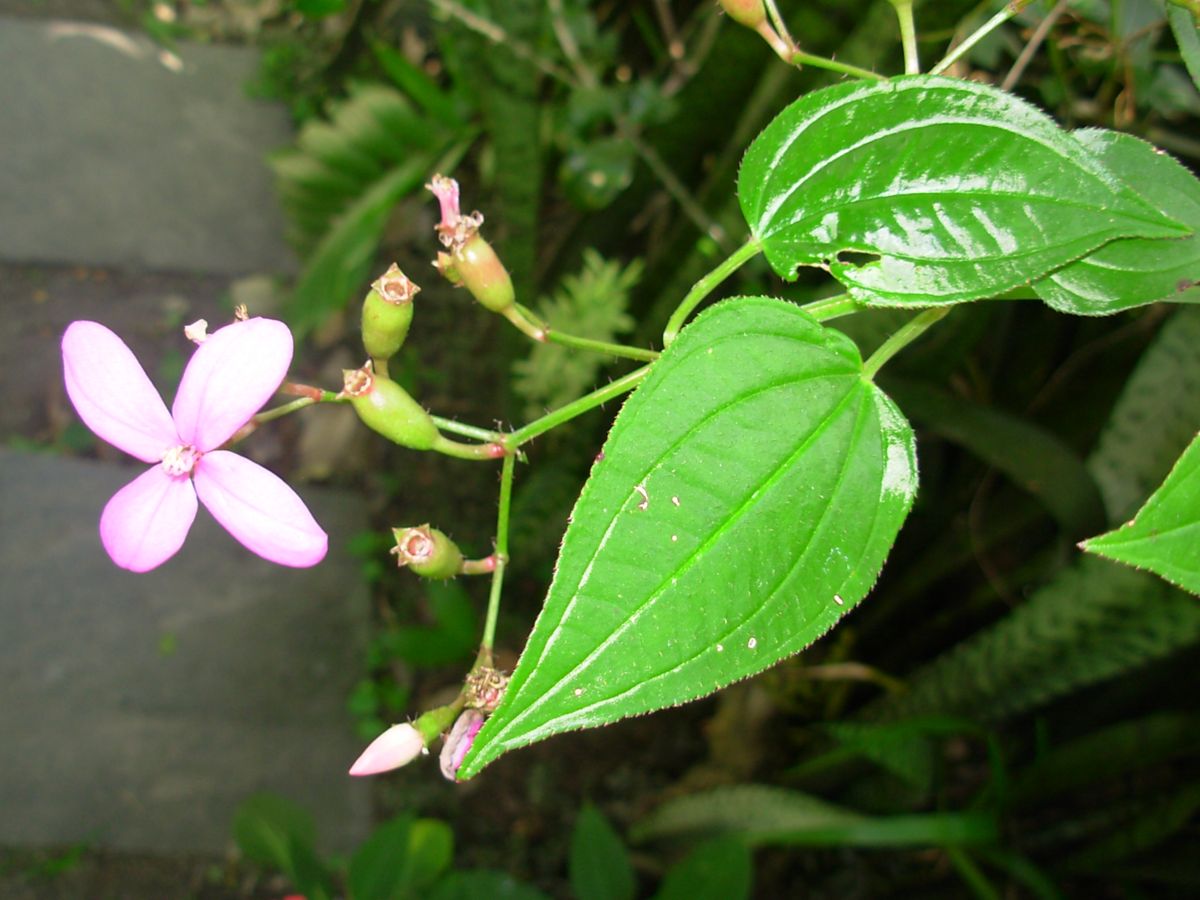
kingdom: Plantae
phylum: Tracheophyta
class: Magnoliopsida
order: Myrtales
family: Melastomataceae
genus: Arthrostemma
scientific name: Arthrostemma ciliatum
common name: Everblooming eavender
